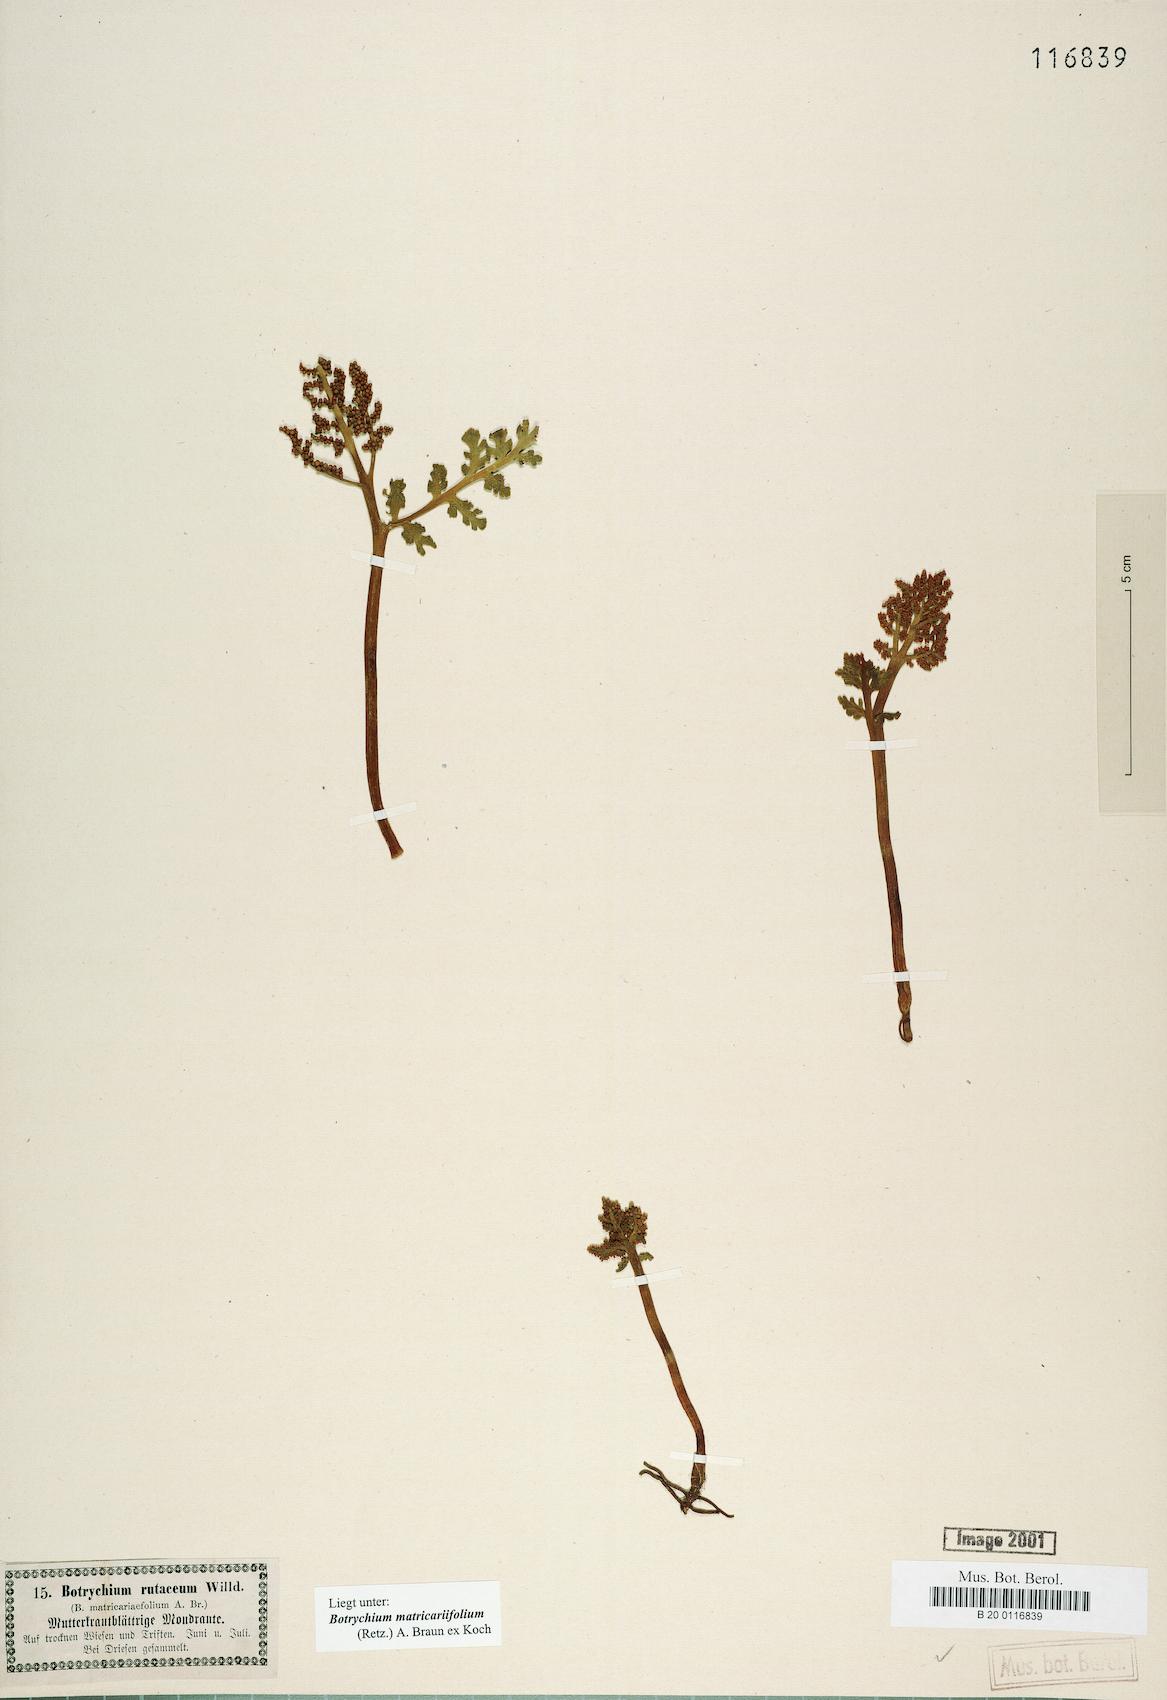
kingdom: Plantae
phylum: Tracheophyta
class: Polypodiopsida
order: Ophioglossales
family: Ophioglossaceae
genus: Botrychium
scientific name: Botrychium matricariifolium
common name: Branched moonwort
